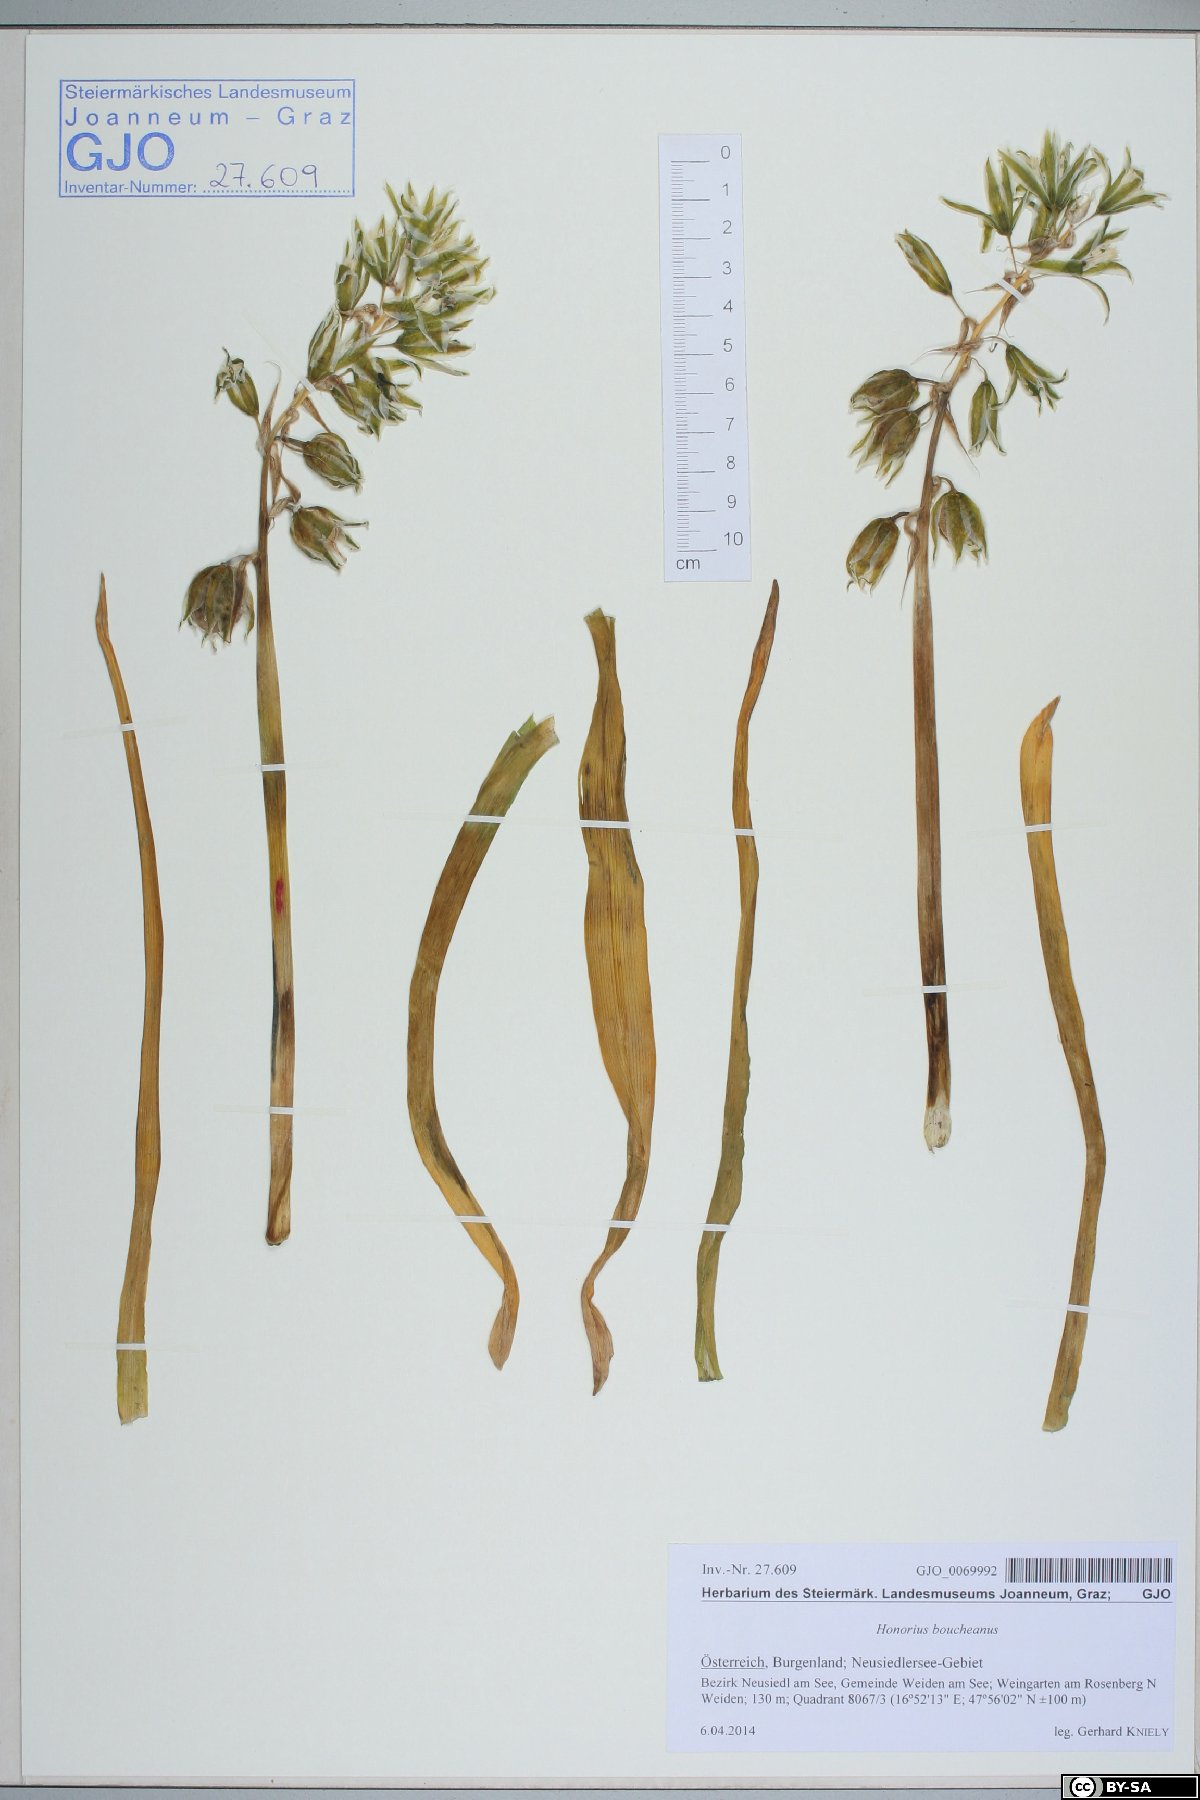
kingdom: Plantae
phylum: Tracheophyta
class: Liliopsida
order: Asparagales
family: Asparagaceae
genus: Ornithogalum
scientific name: Ornithogalum boucheanum
